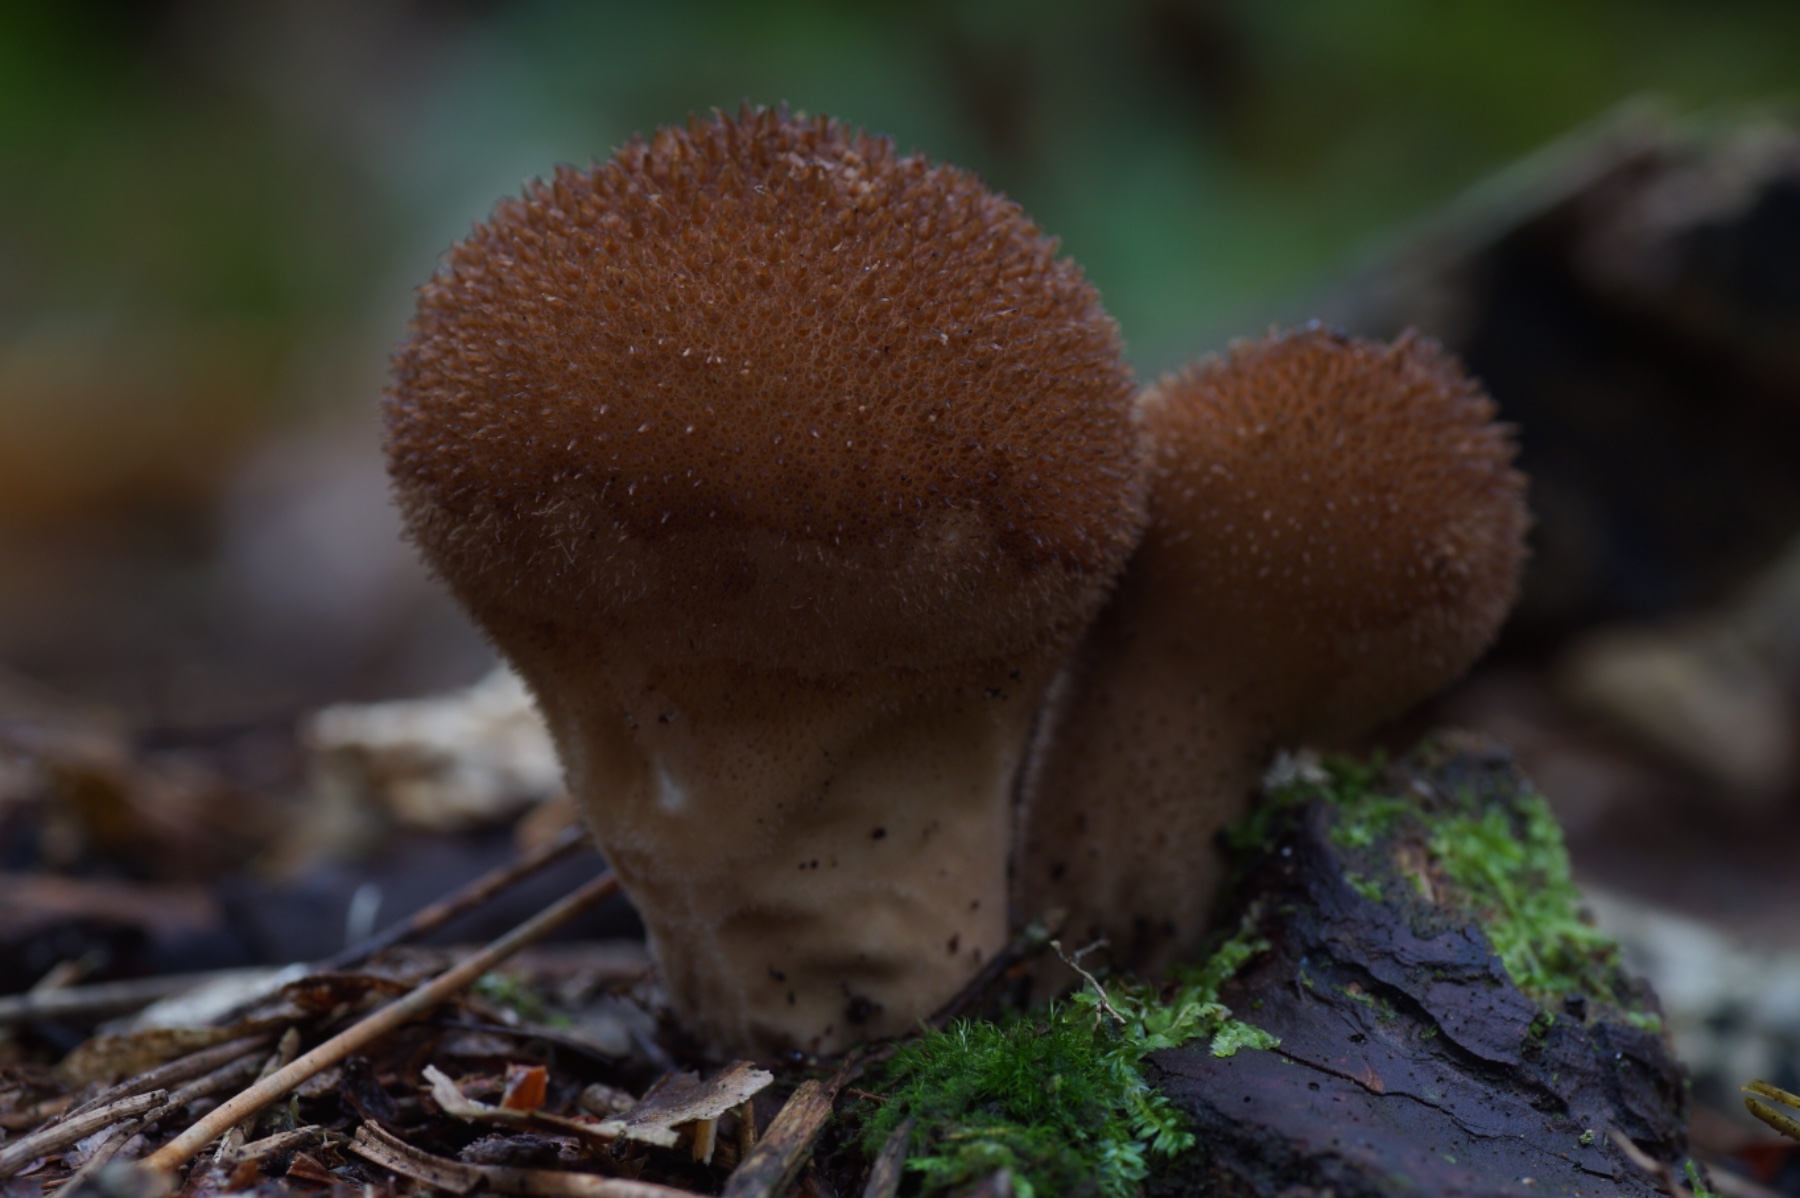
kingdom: Fungi
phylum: Basidiomycota
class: Agaricomycetes
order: Agaricales
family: Lycoperdaceae
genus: Lycoperdon
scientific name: Lycoperdon nigrescens
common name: sortagtig støvbold
